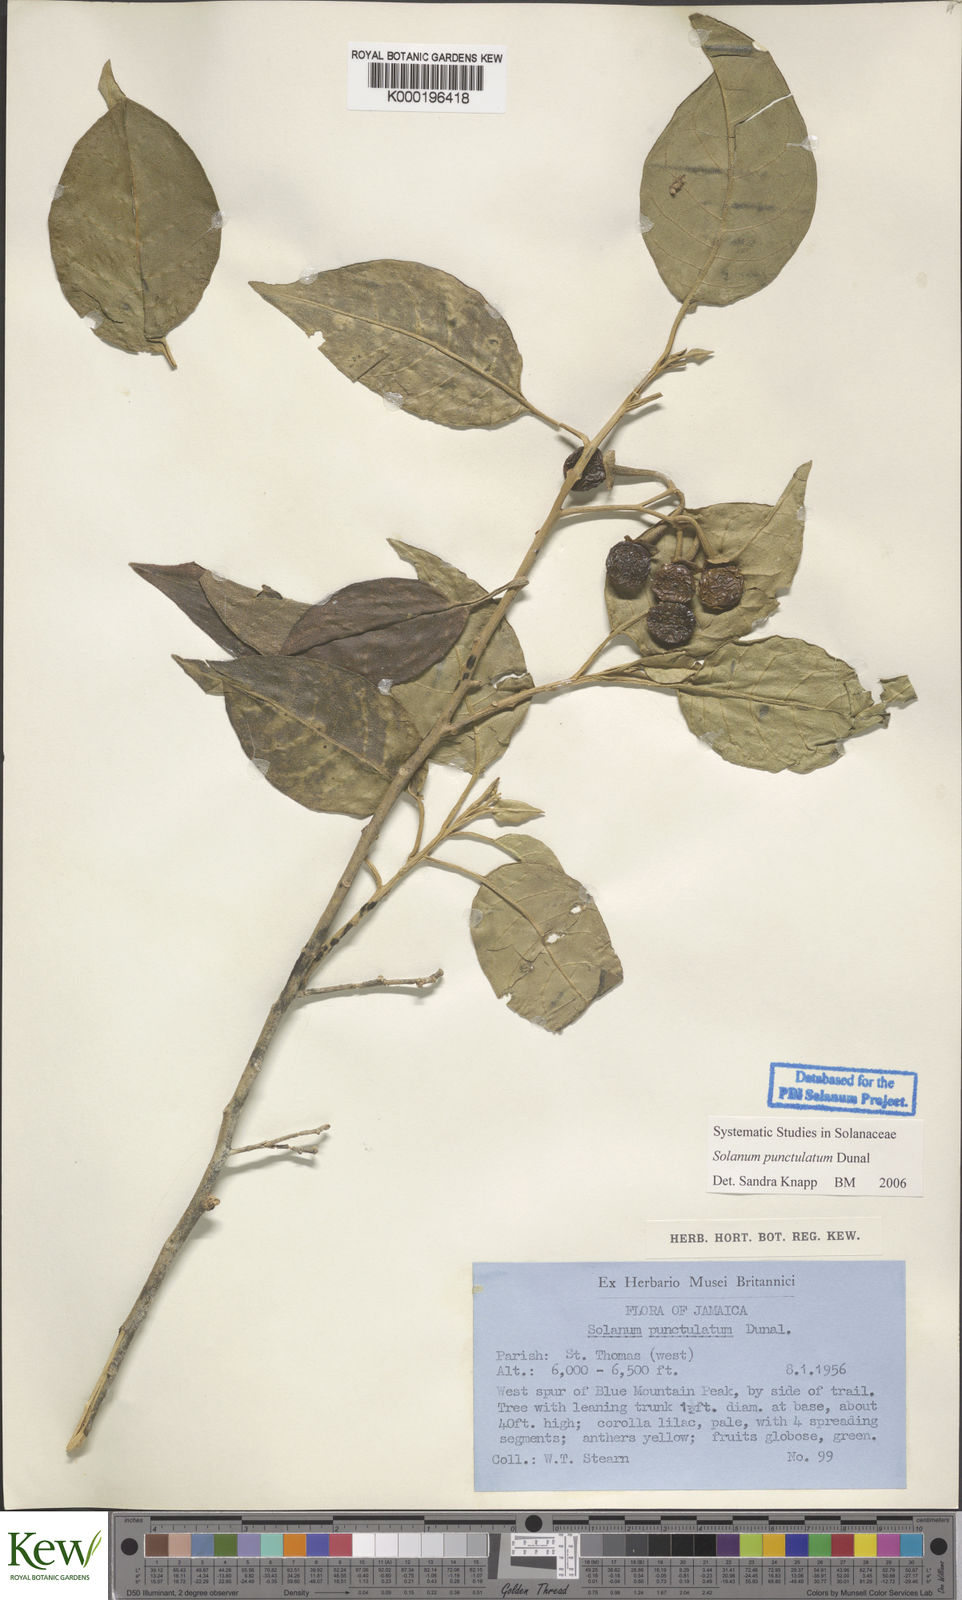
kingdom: Plantae
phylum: Tracheophyta
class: Magnoliopsida
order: Solanales
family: Solanaceae
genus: Solanum
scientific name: Solanum punctulatum
